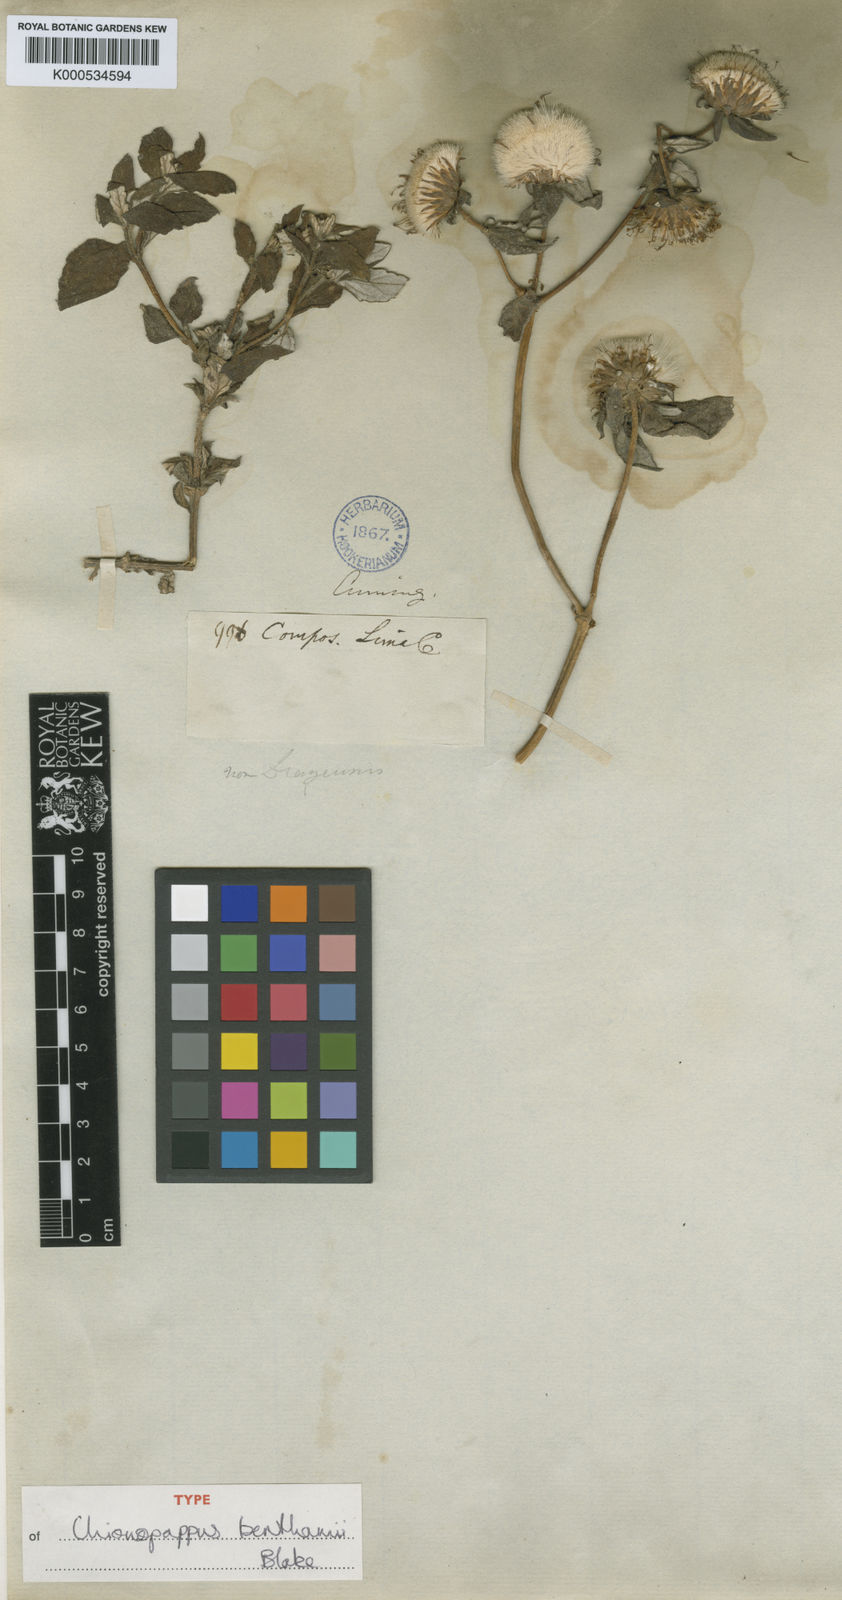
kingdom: Plantae
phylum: Tracheophyta
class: Magnoliopsida
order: Asterales
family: Asteraceae
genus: Chionopappus
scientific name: Chionopappus benthamii
